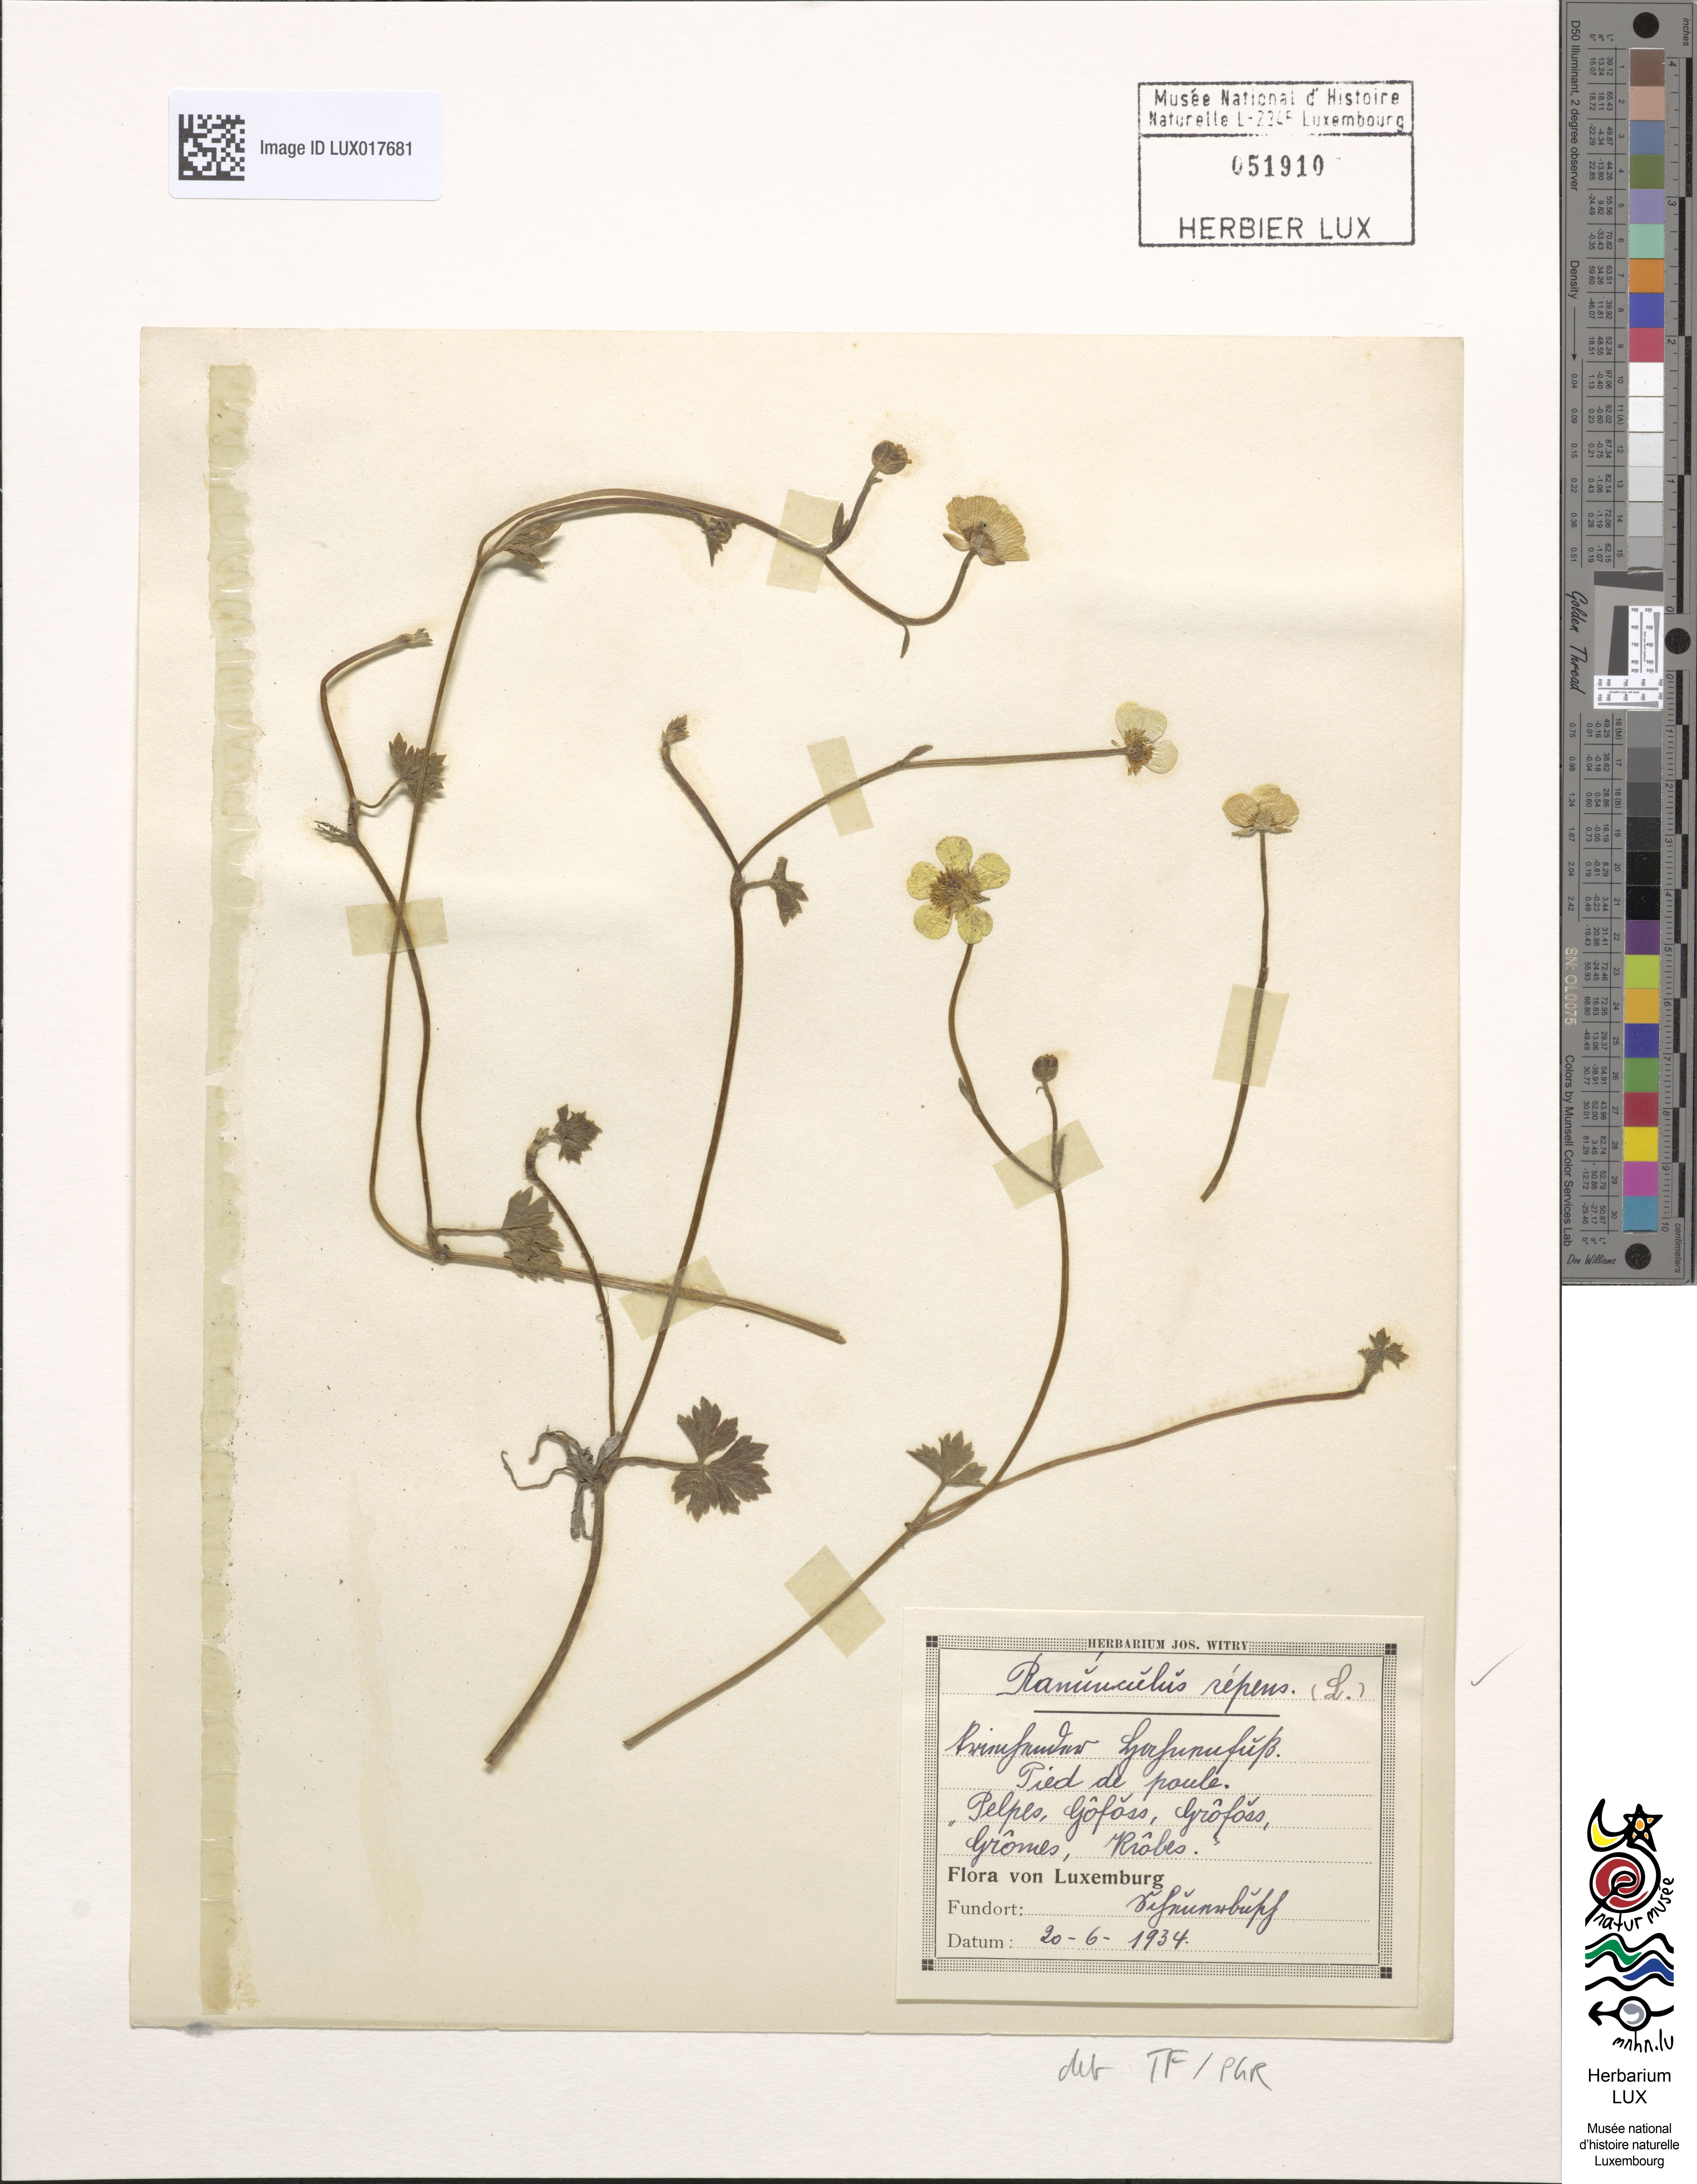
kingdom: Plantae
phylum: Tracheophyta
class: Magnoliopsida
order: Ranunculales
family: Ranunculaceae
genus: Ranunculus
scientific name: Ranunculus repens
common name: Creeping buttercup
